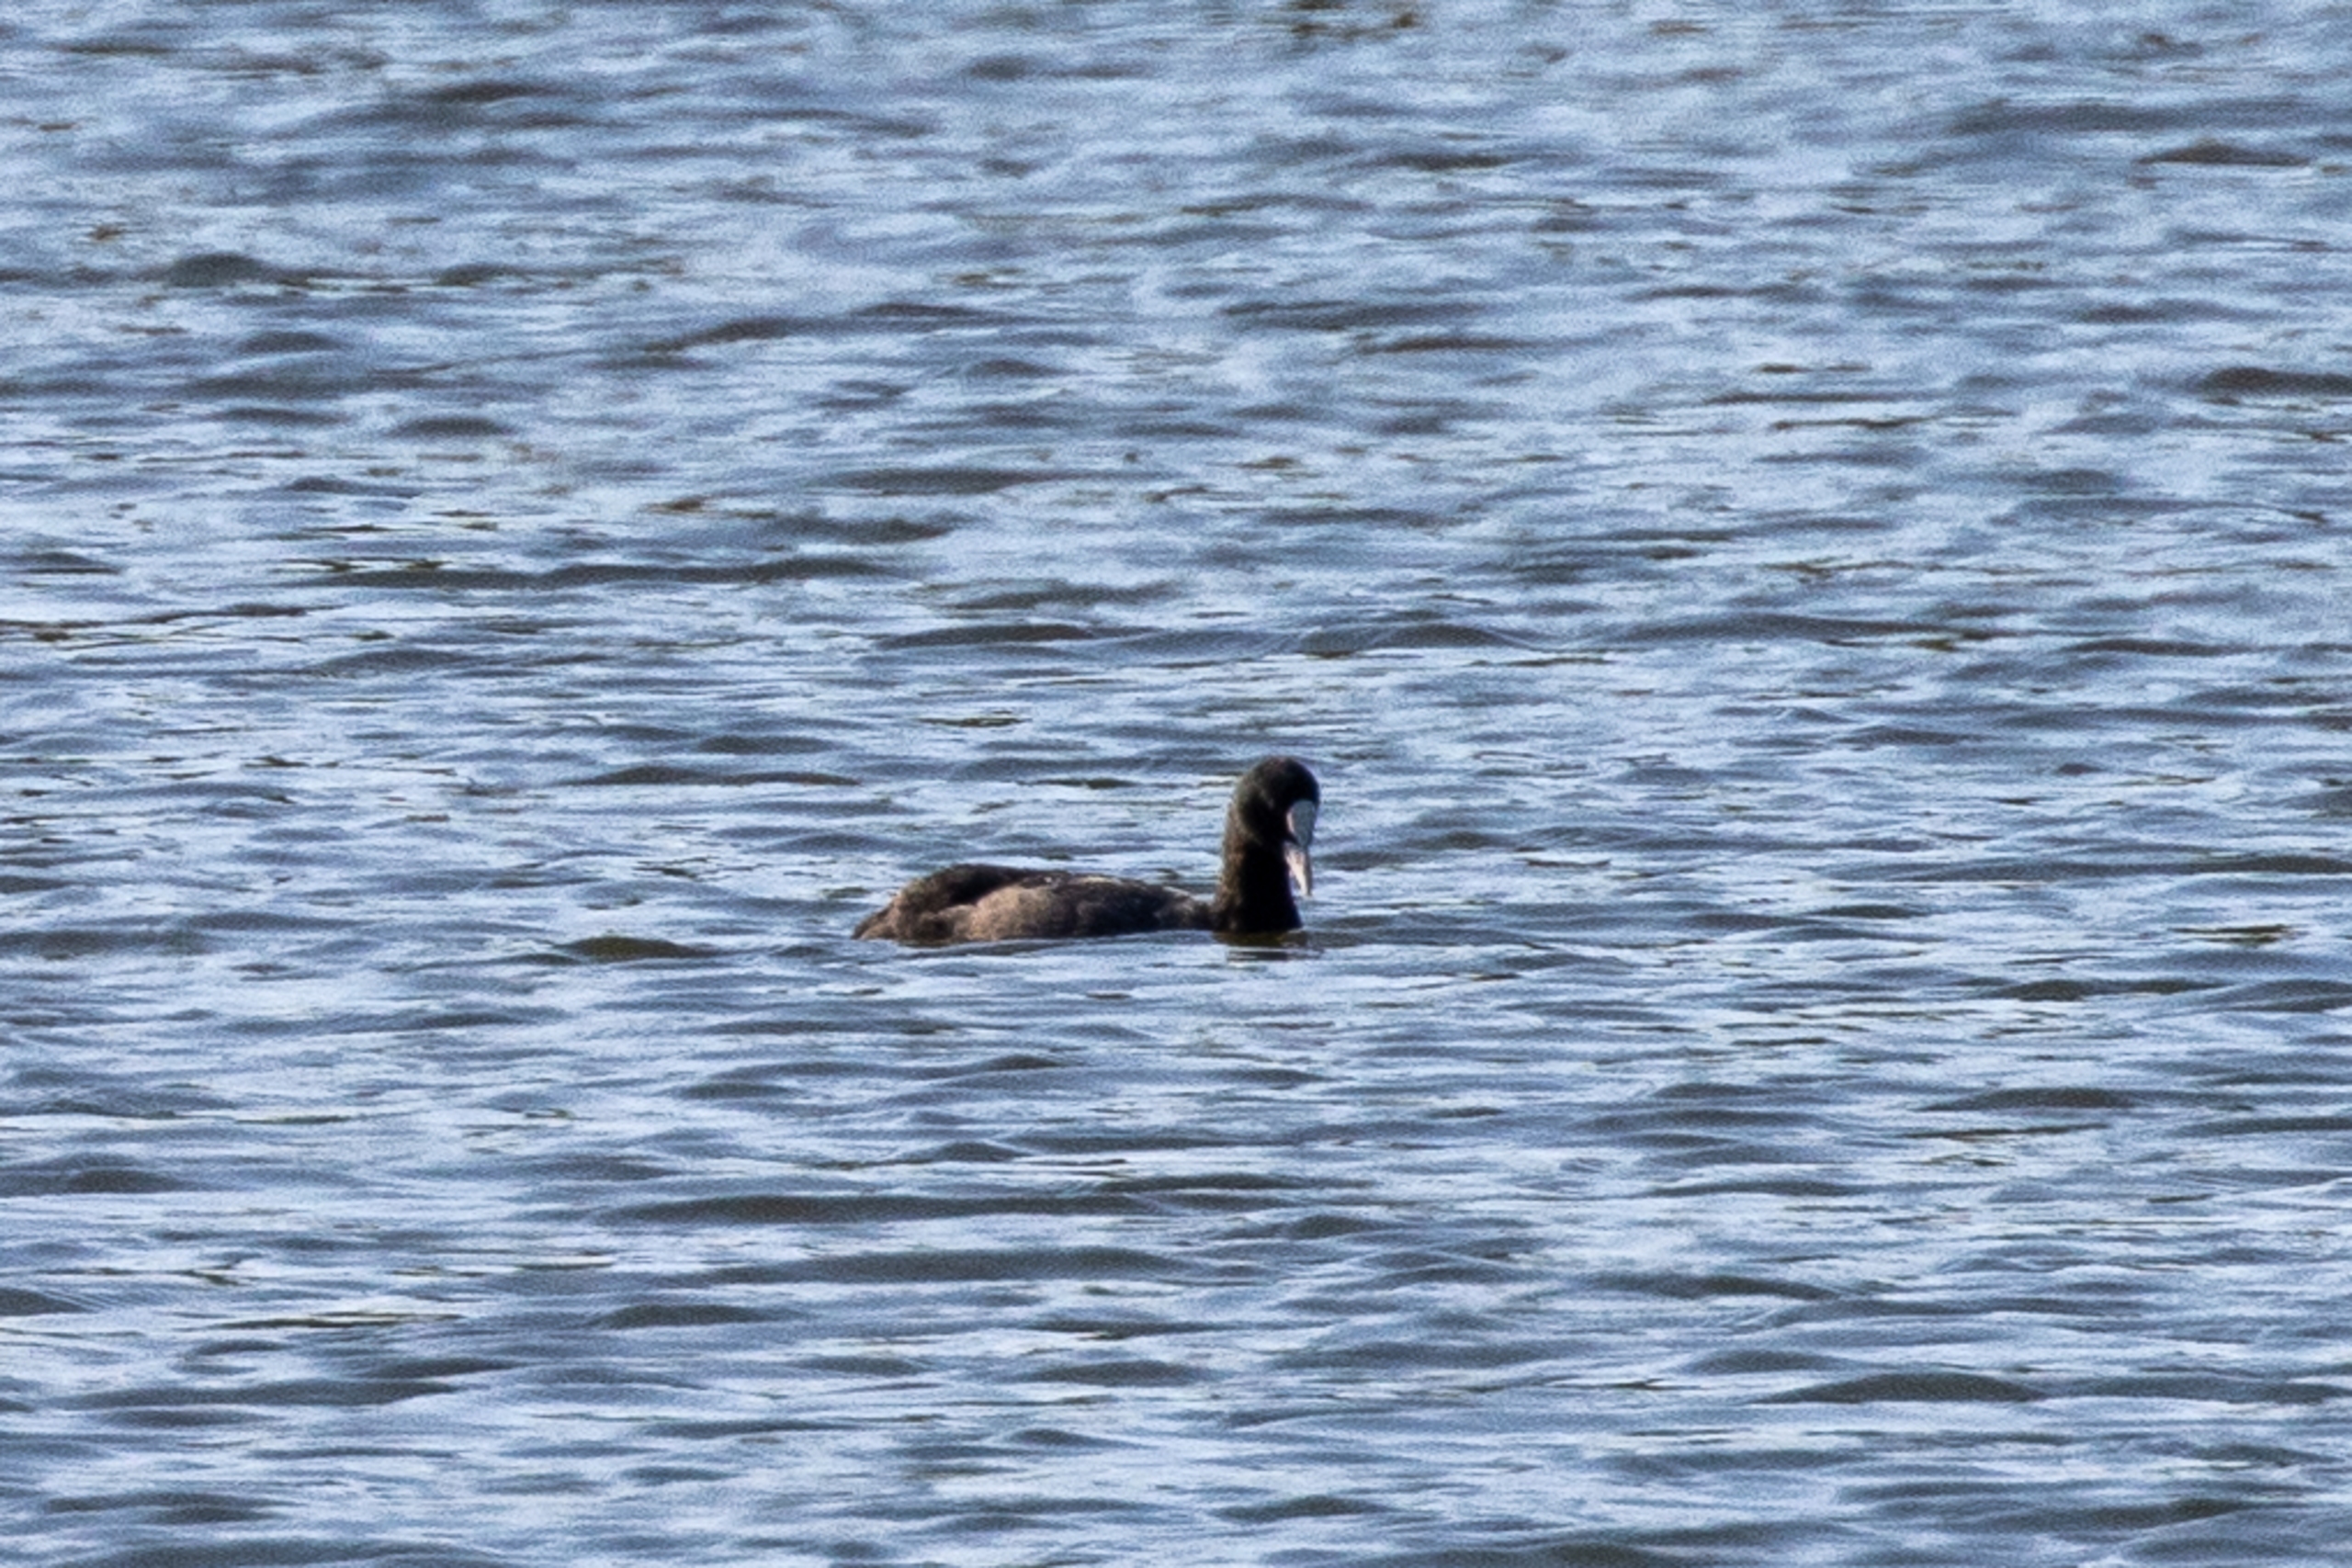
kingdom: Animalia
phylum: Chordata
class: Aves
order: Gruiformes
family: Rallidae
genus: Fulica
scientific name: Fulica atra
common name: Blishøne
